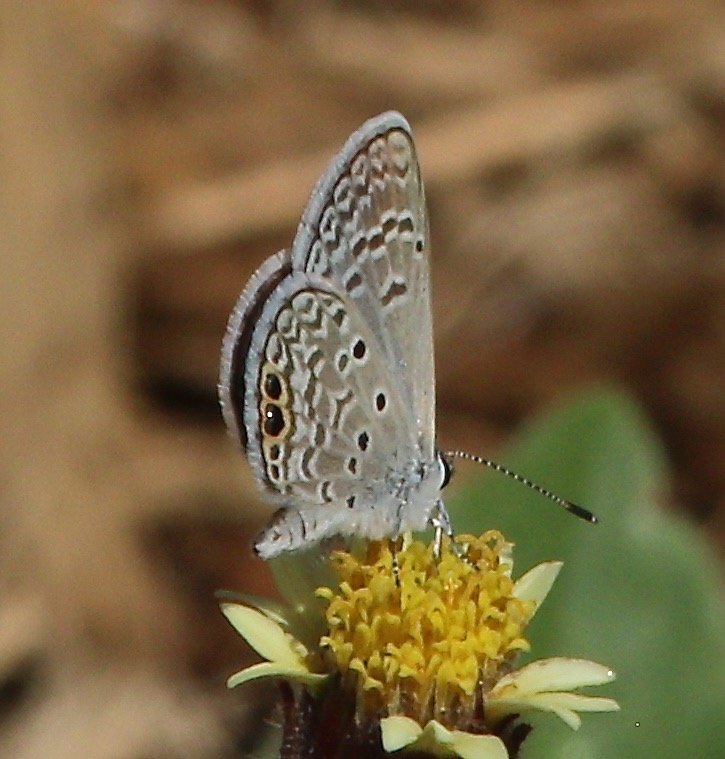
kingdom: Animalia
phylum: Arthropoda
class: Insecta
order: Lepidoptera
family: Lycaenidae
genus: Hemiargus
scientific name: Hemiargus ceraunus
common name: Ceraunus Blue
